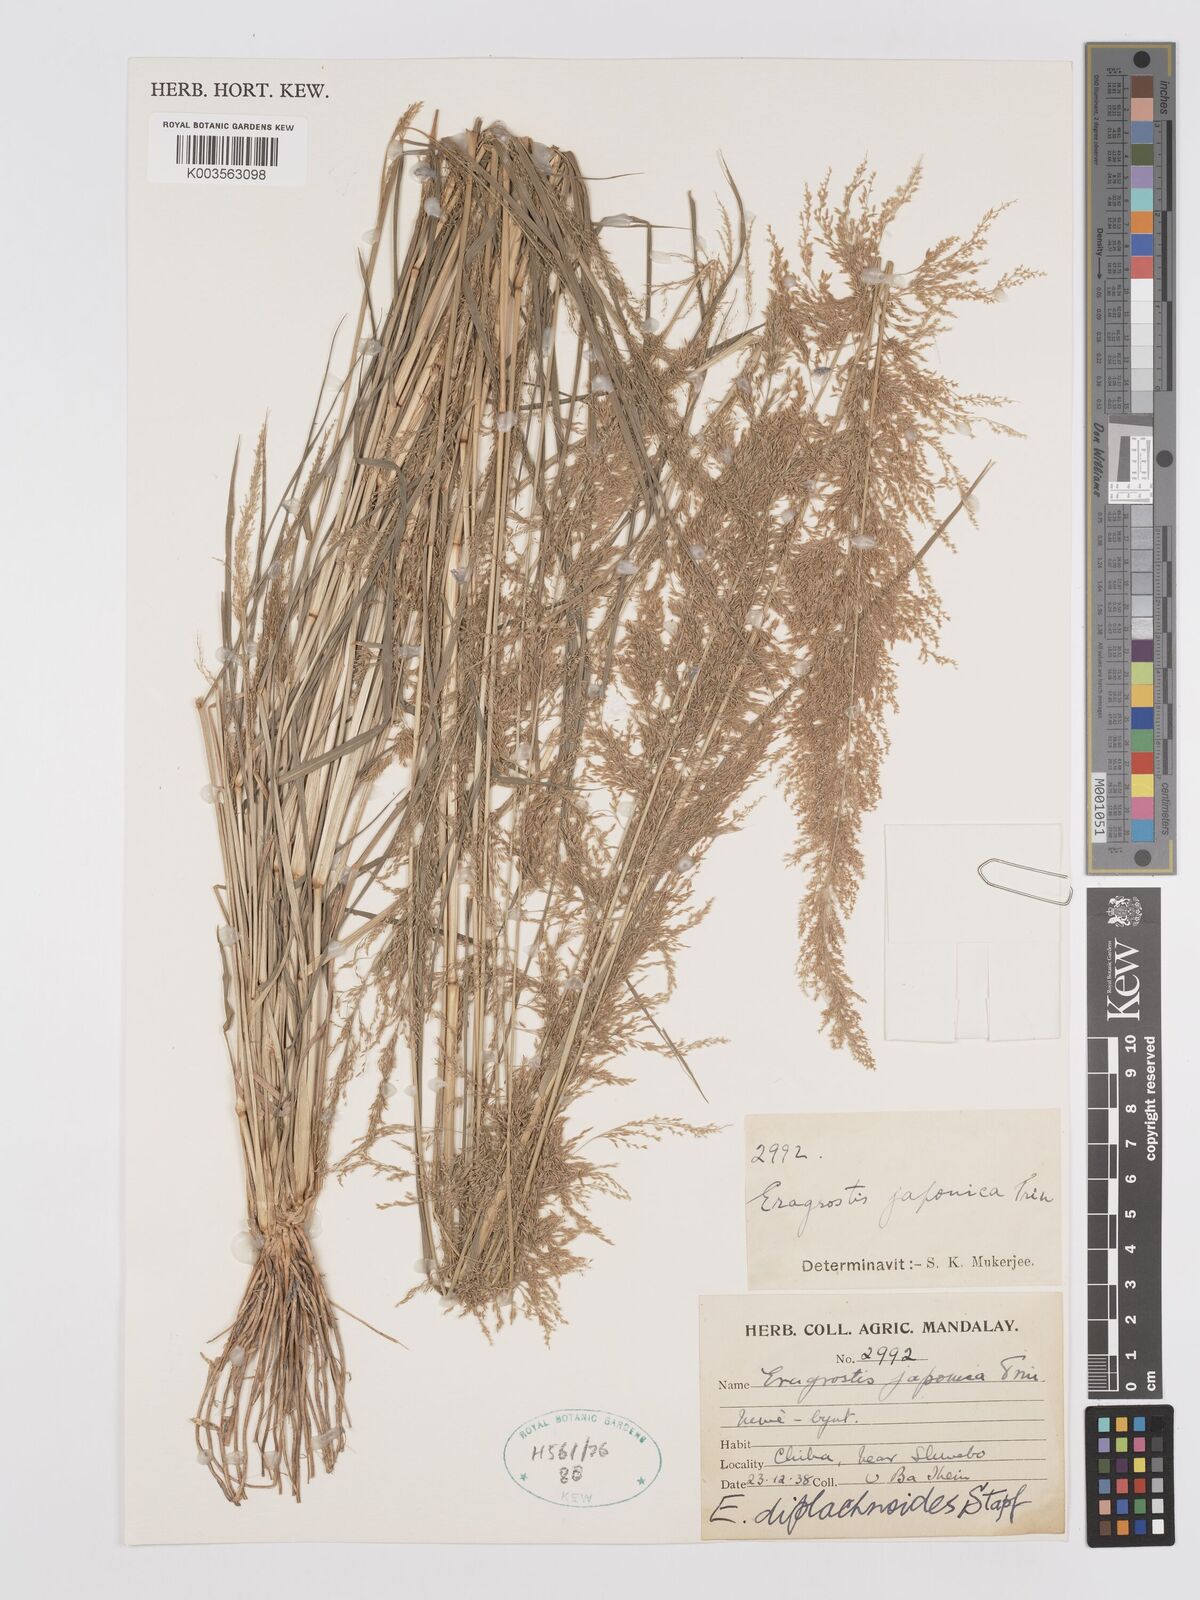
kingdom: Plantae
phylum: Tracheophyta
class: Liliopsida
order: Poales
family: Poaceae
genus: Eragrostis
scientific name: Eragrostis japonica
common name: Pond lovegrass
